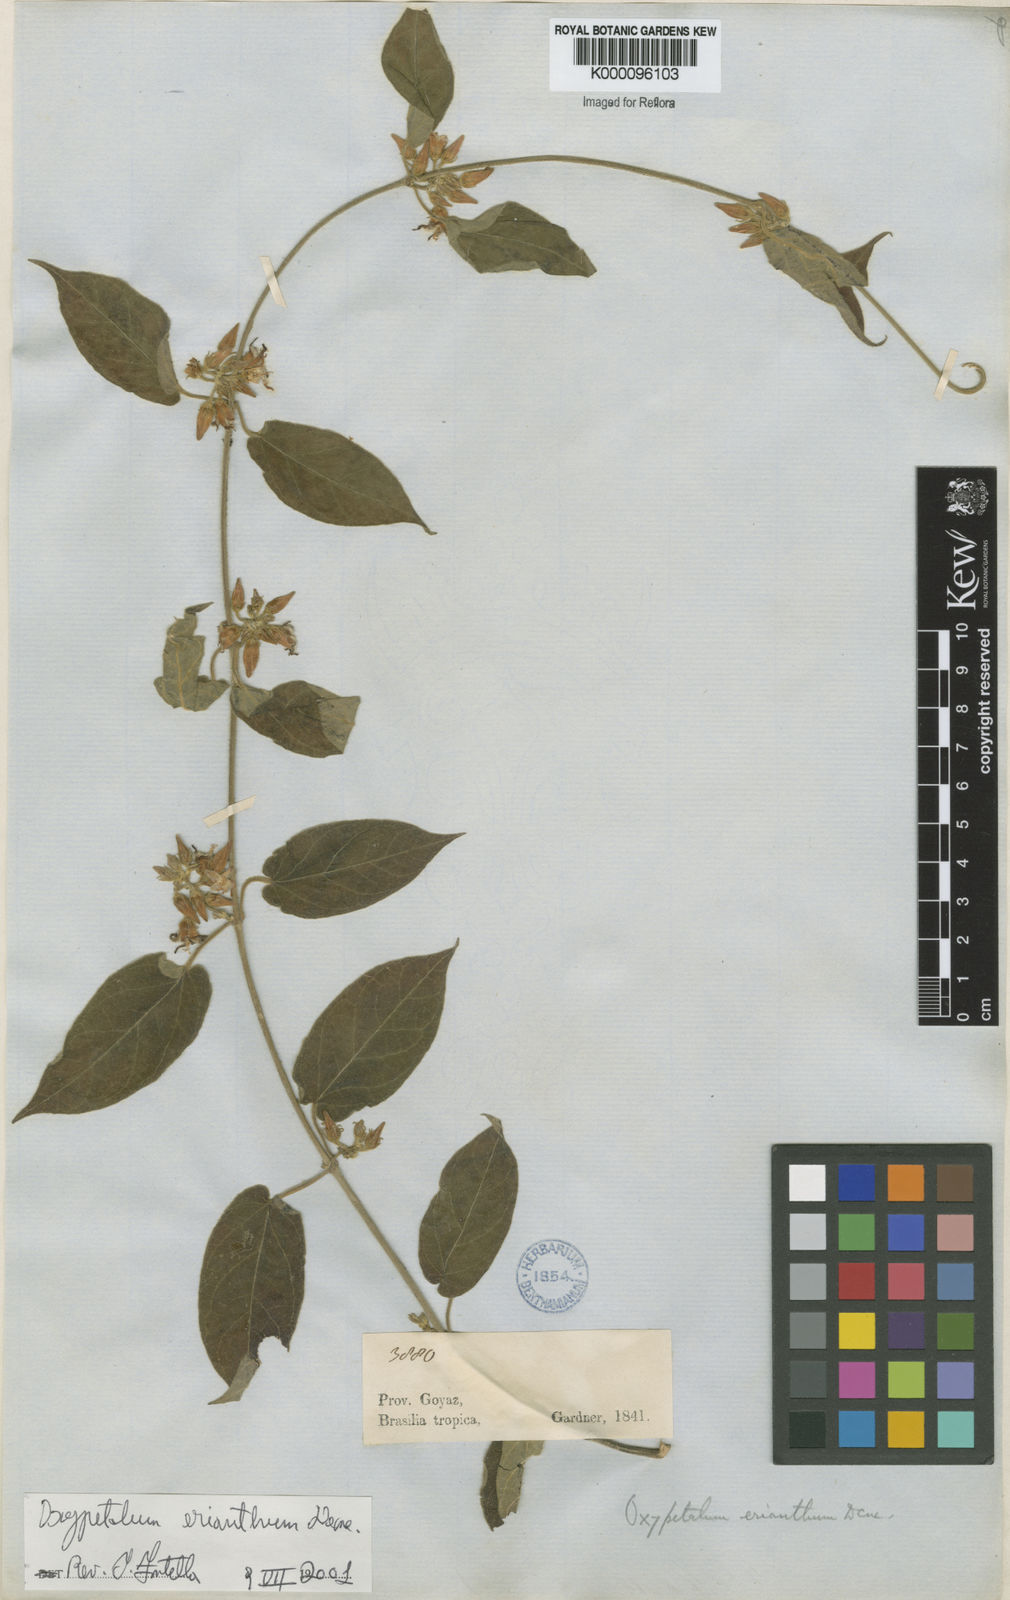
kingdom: Plantae
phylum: Tracheophyta
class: Magnoliopsida
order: Gentianales
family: Apocynaceae
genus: Oxypetalum
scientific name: Oxypetalum erianthum
